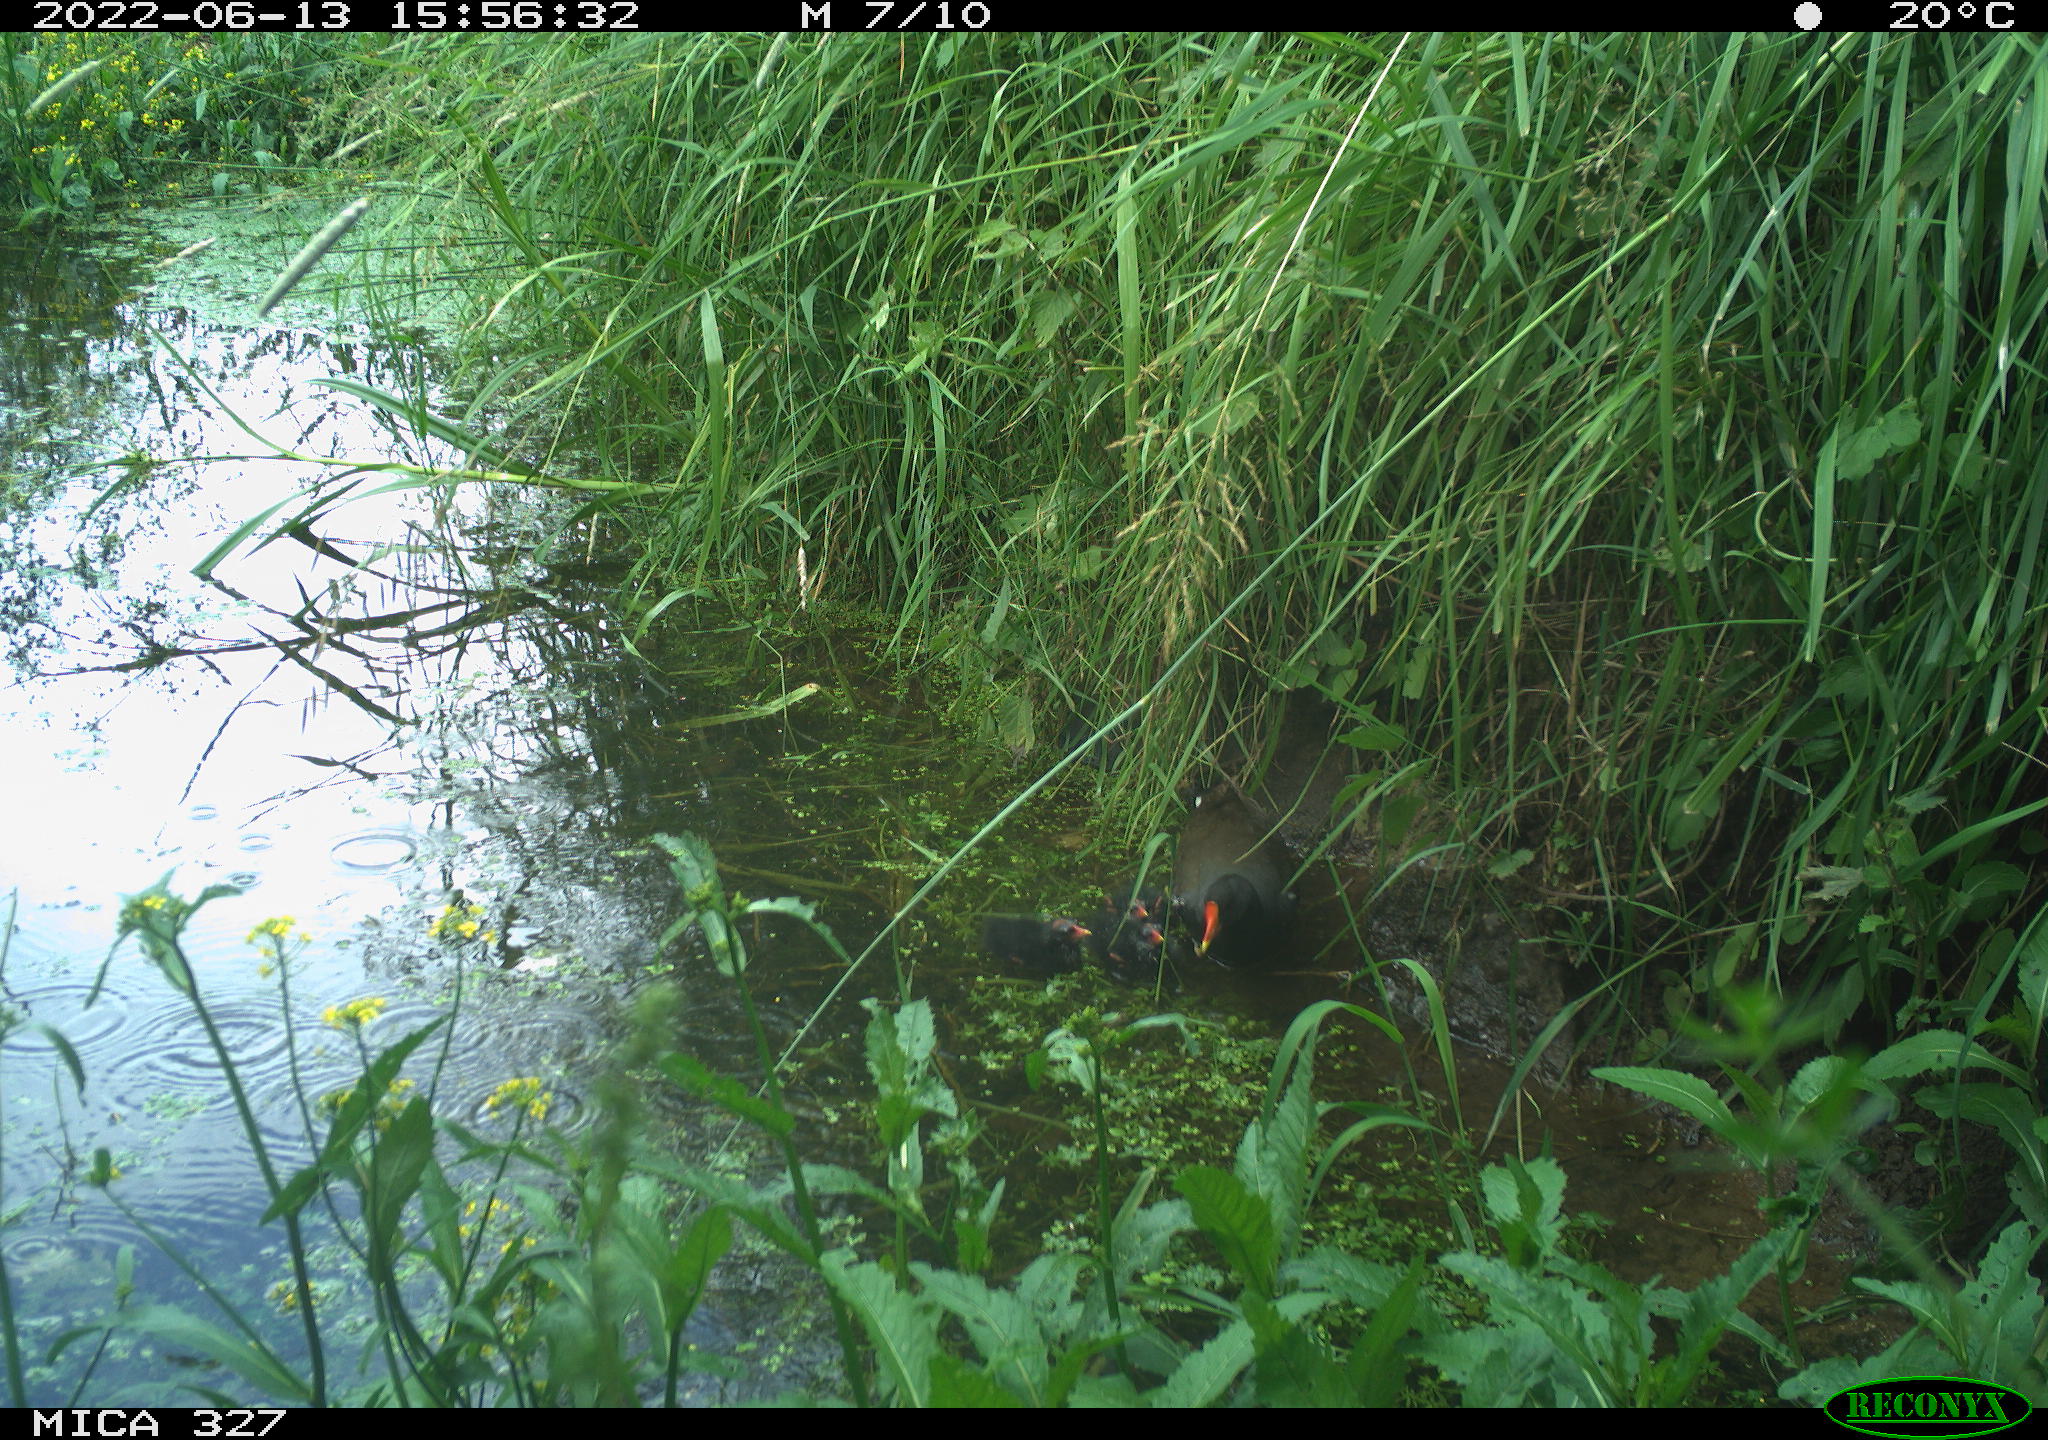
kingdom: Animalia
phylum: Chordata
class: Aves
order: Gruiformes
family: Rallidae
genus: Gallinula
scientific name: Gallinula chloropus
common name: Common moorhen
